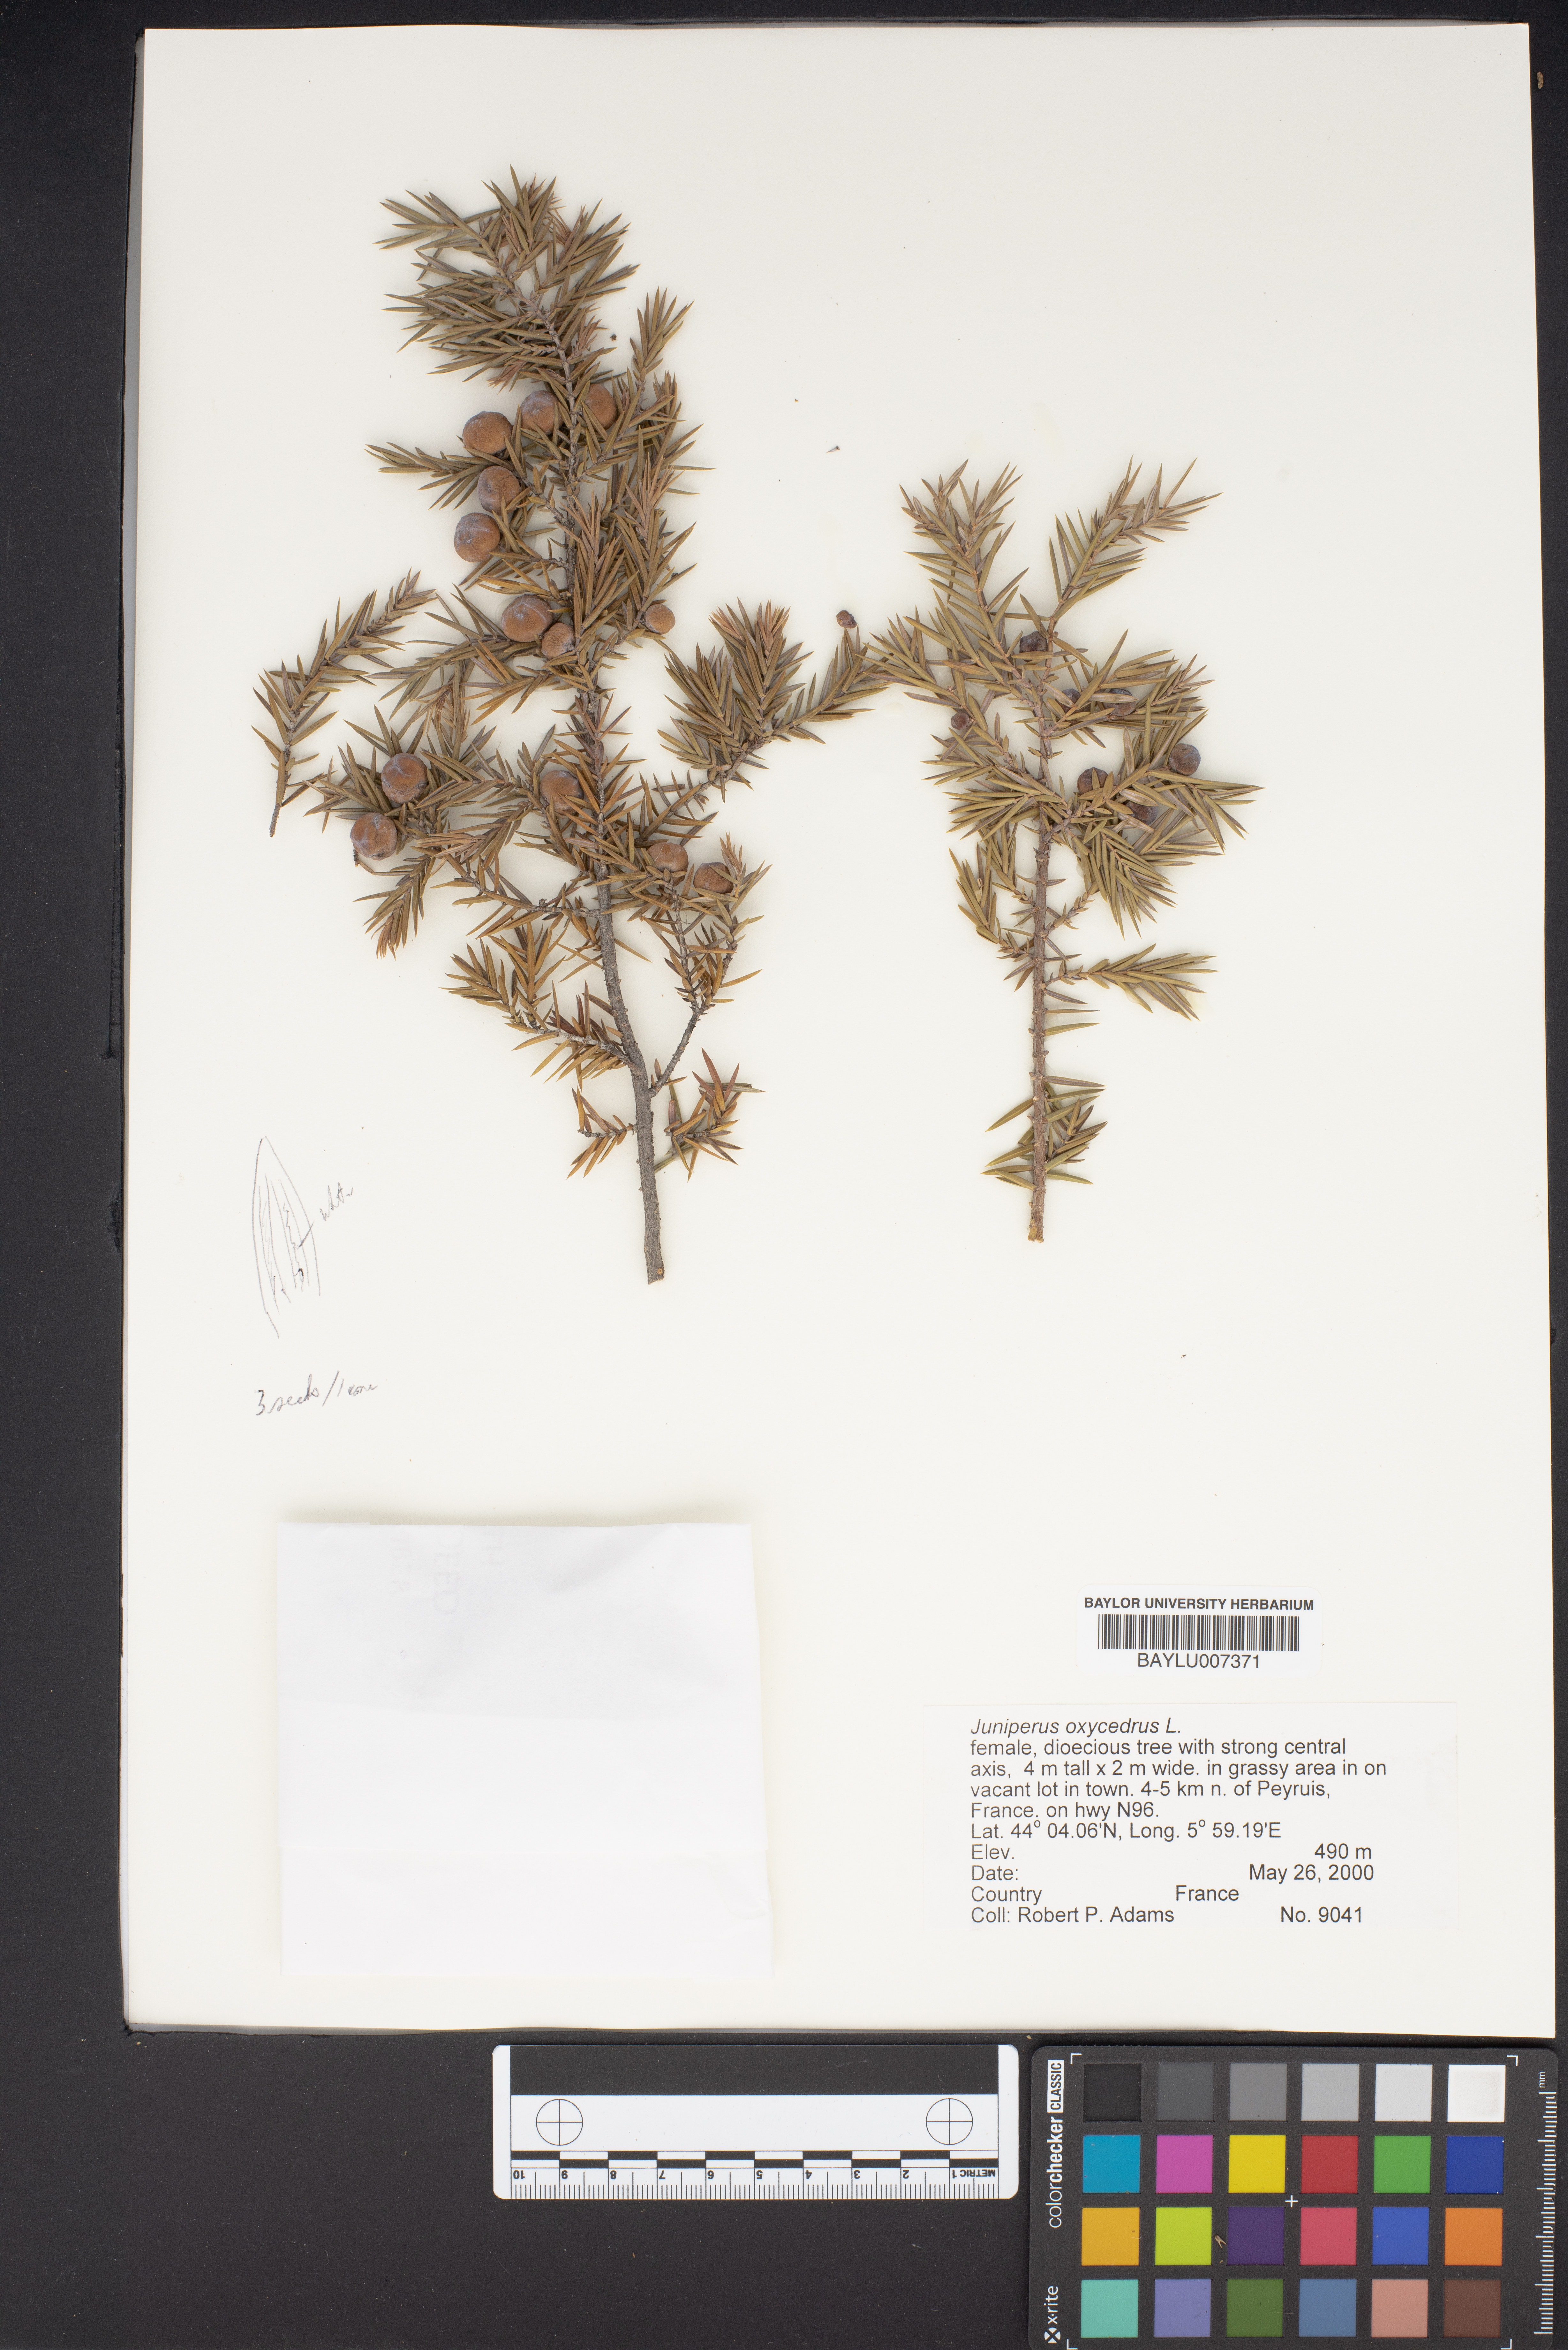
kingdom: Plantae
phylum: Tracheophyta
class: Pinopsida
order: Pinales
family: Cupressaceae
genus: Juniperus
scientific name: Juniperus oxycedrus
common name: Prickly juniper
